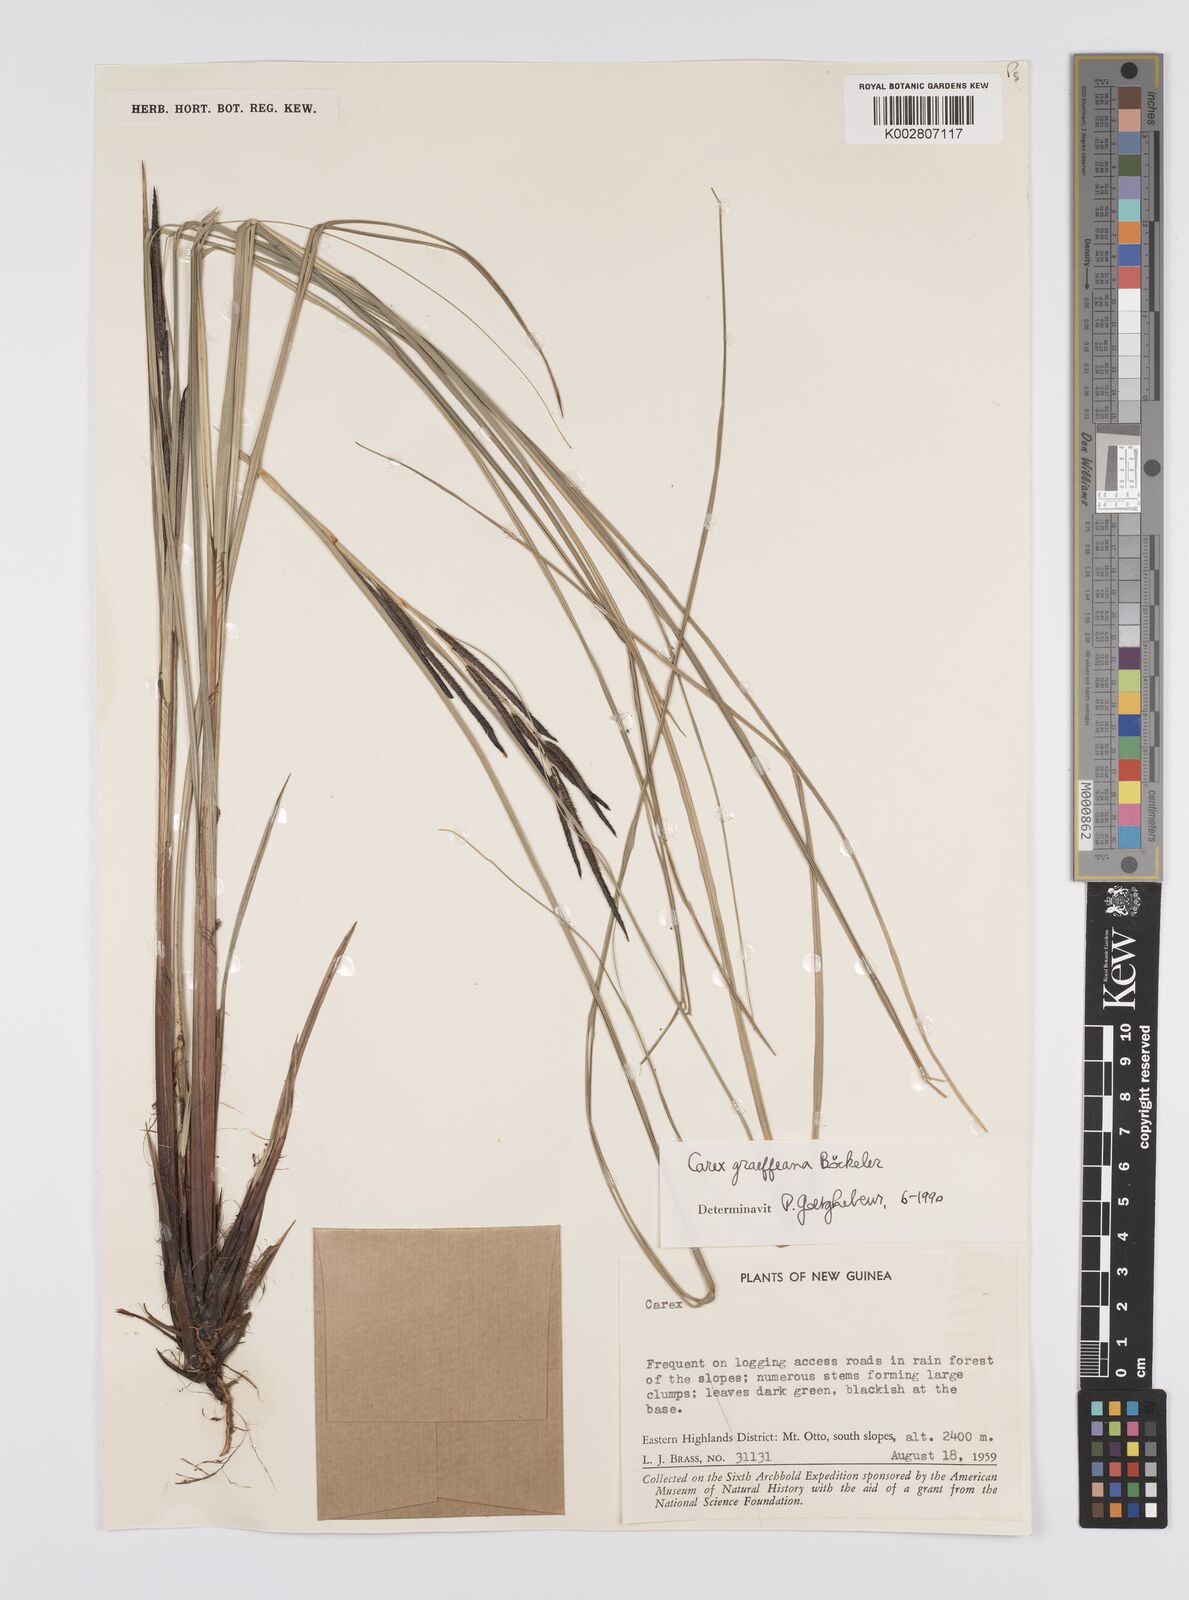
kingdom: Plantae
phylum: Tracheophyta
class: Liliopsida
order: Poales
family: Cyperaceae
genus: Carex
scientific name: Carex graeffeana
